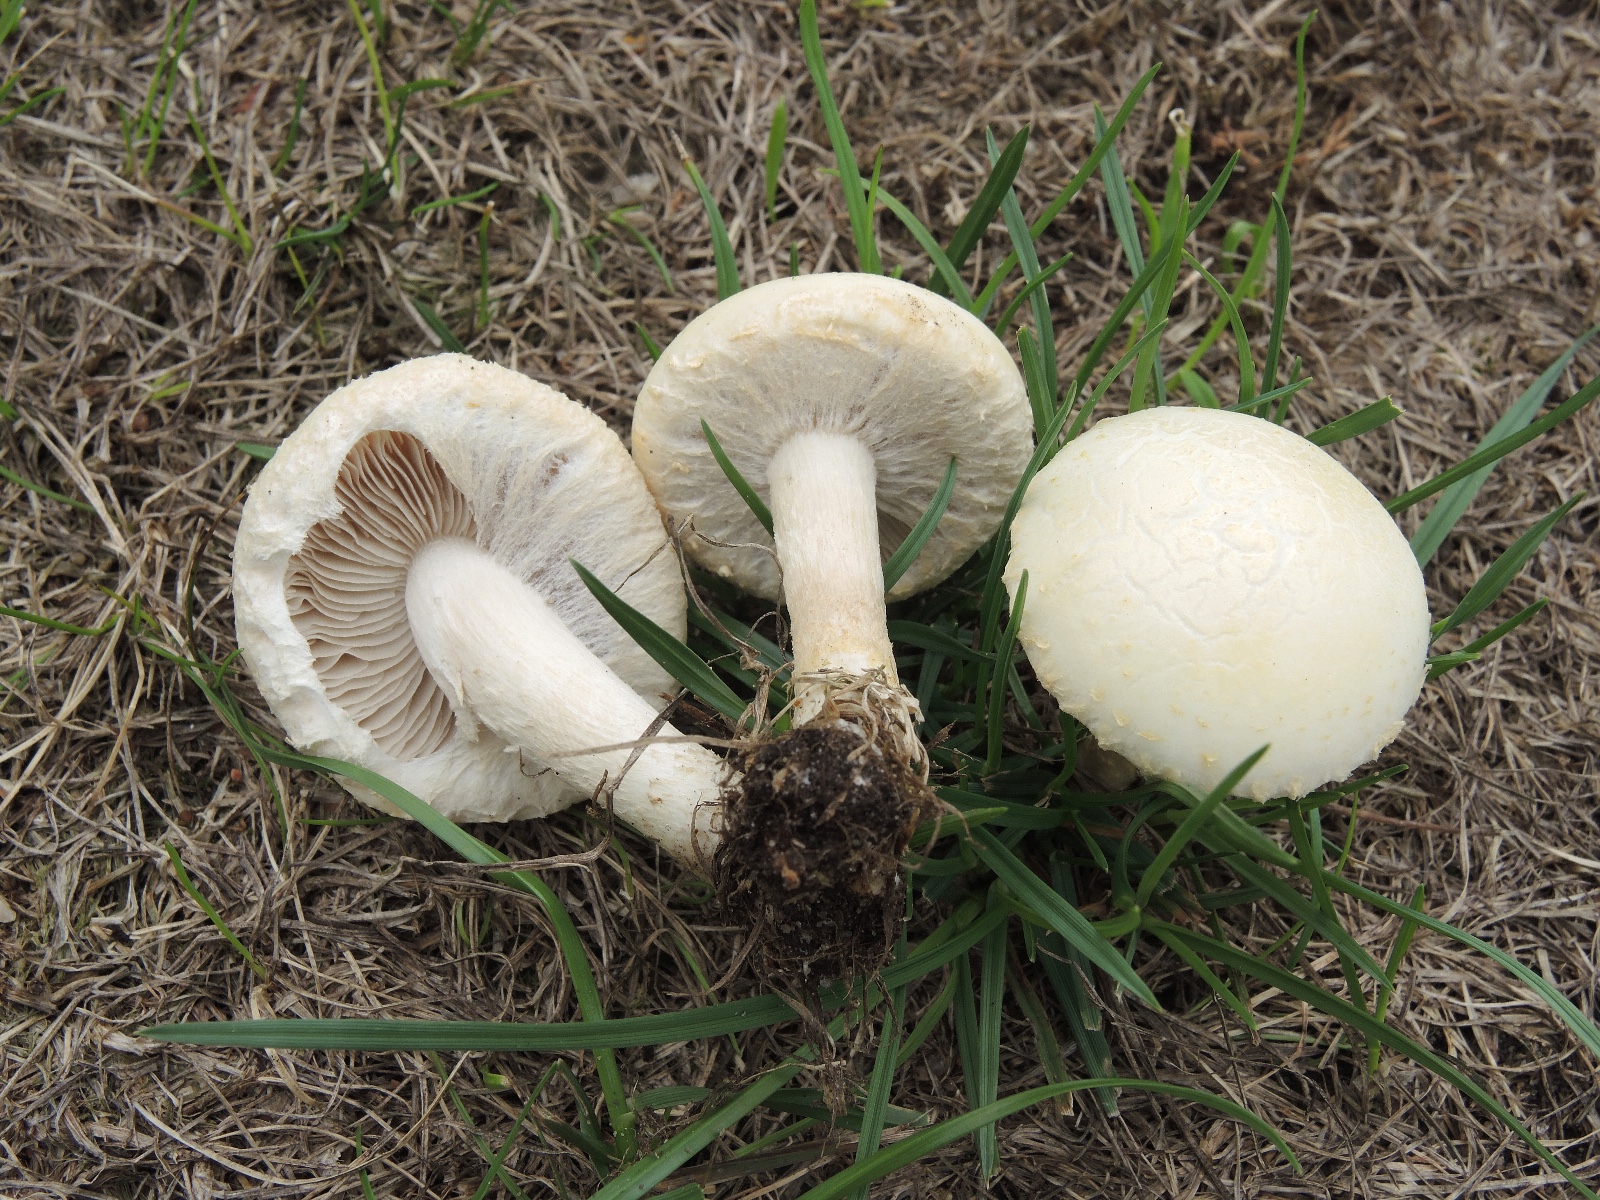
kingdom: Fungi
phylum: Basidiomycota
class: Agaricomycetes
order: Agaricales
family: Strophariaceae
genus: Agrocybe
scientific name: Agrocybe dura
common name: fastkødet agerhat
